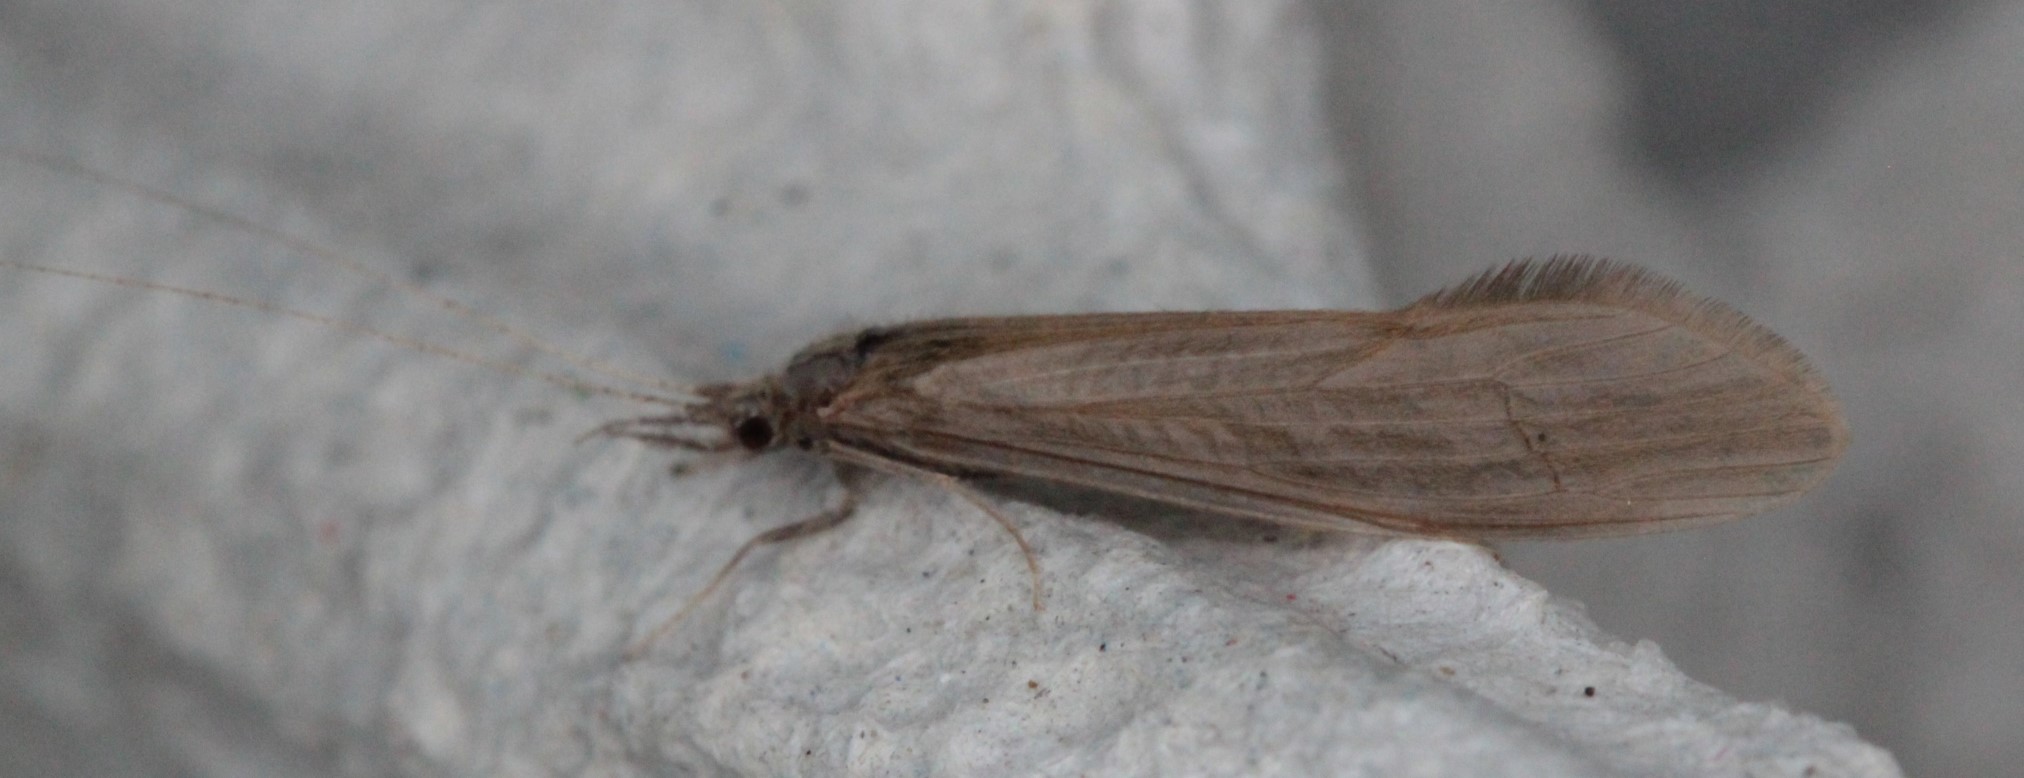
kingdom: Animalia
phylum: Arthropoda
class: Insecta
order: Trichoptera
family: Leptoceridae
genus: Oecetis
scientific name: Oecetis ochracea
